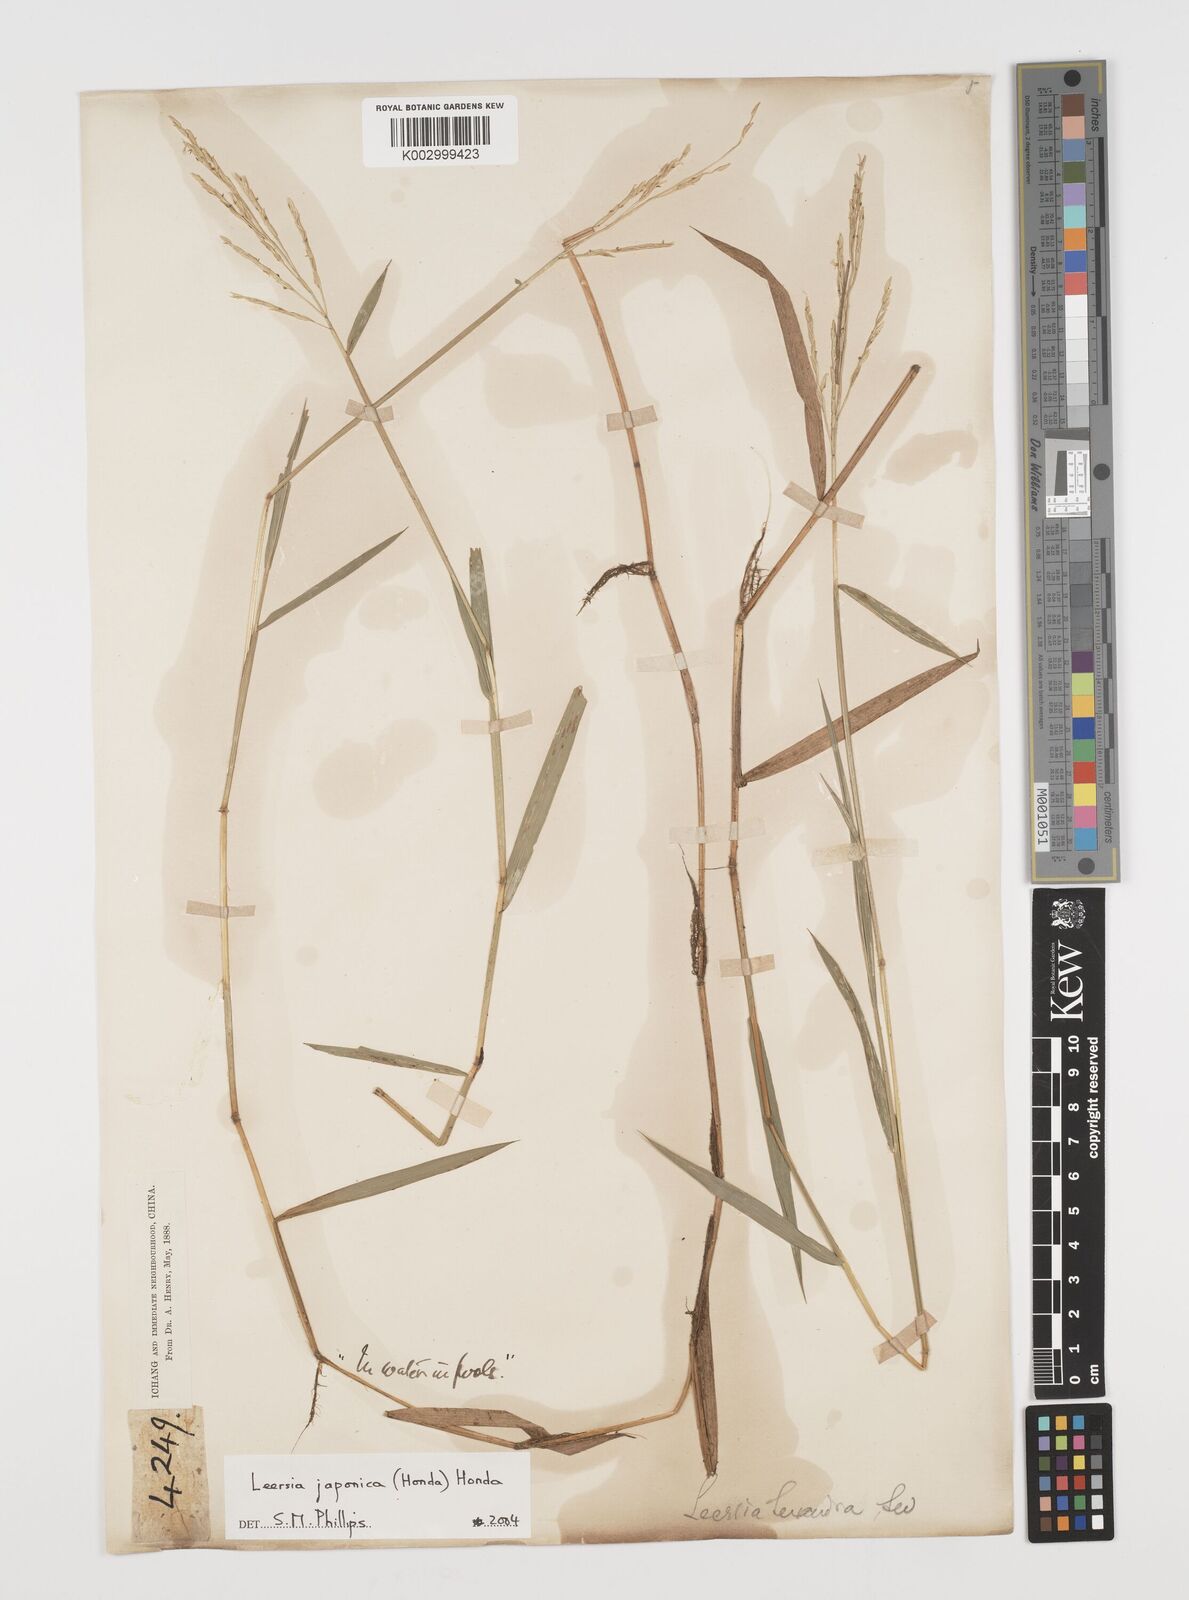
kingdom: Plantae
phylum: Tracheophyta
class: Liliopsida
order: Poales
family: Poaceae
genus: Leersia
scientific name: Leersia japonica
